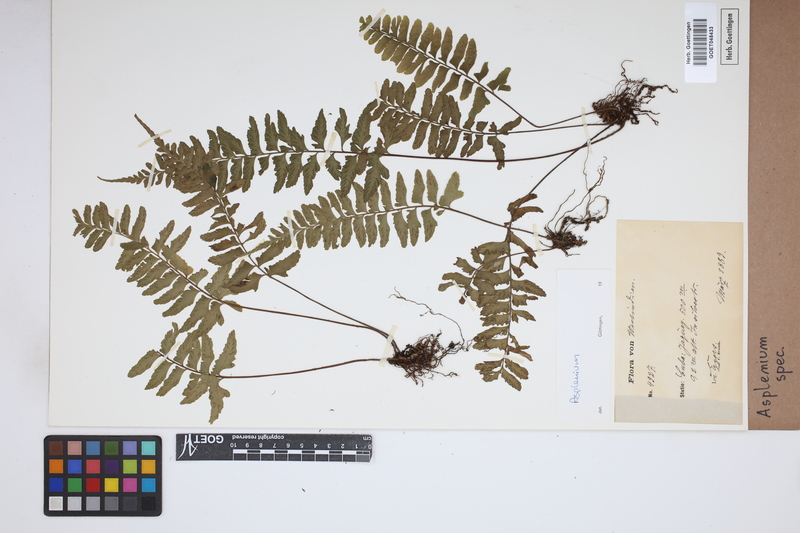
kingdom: Plantae
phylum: Tracheophyta
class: Polypodiopsida
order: Polypodiales
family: Aspleniaceae
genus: Asplenium
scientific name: Asplenium
